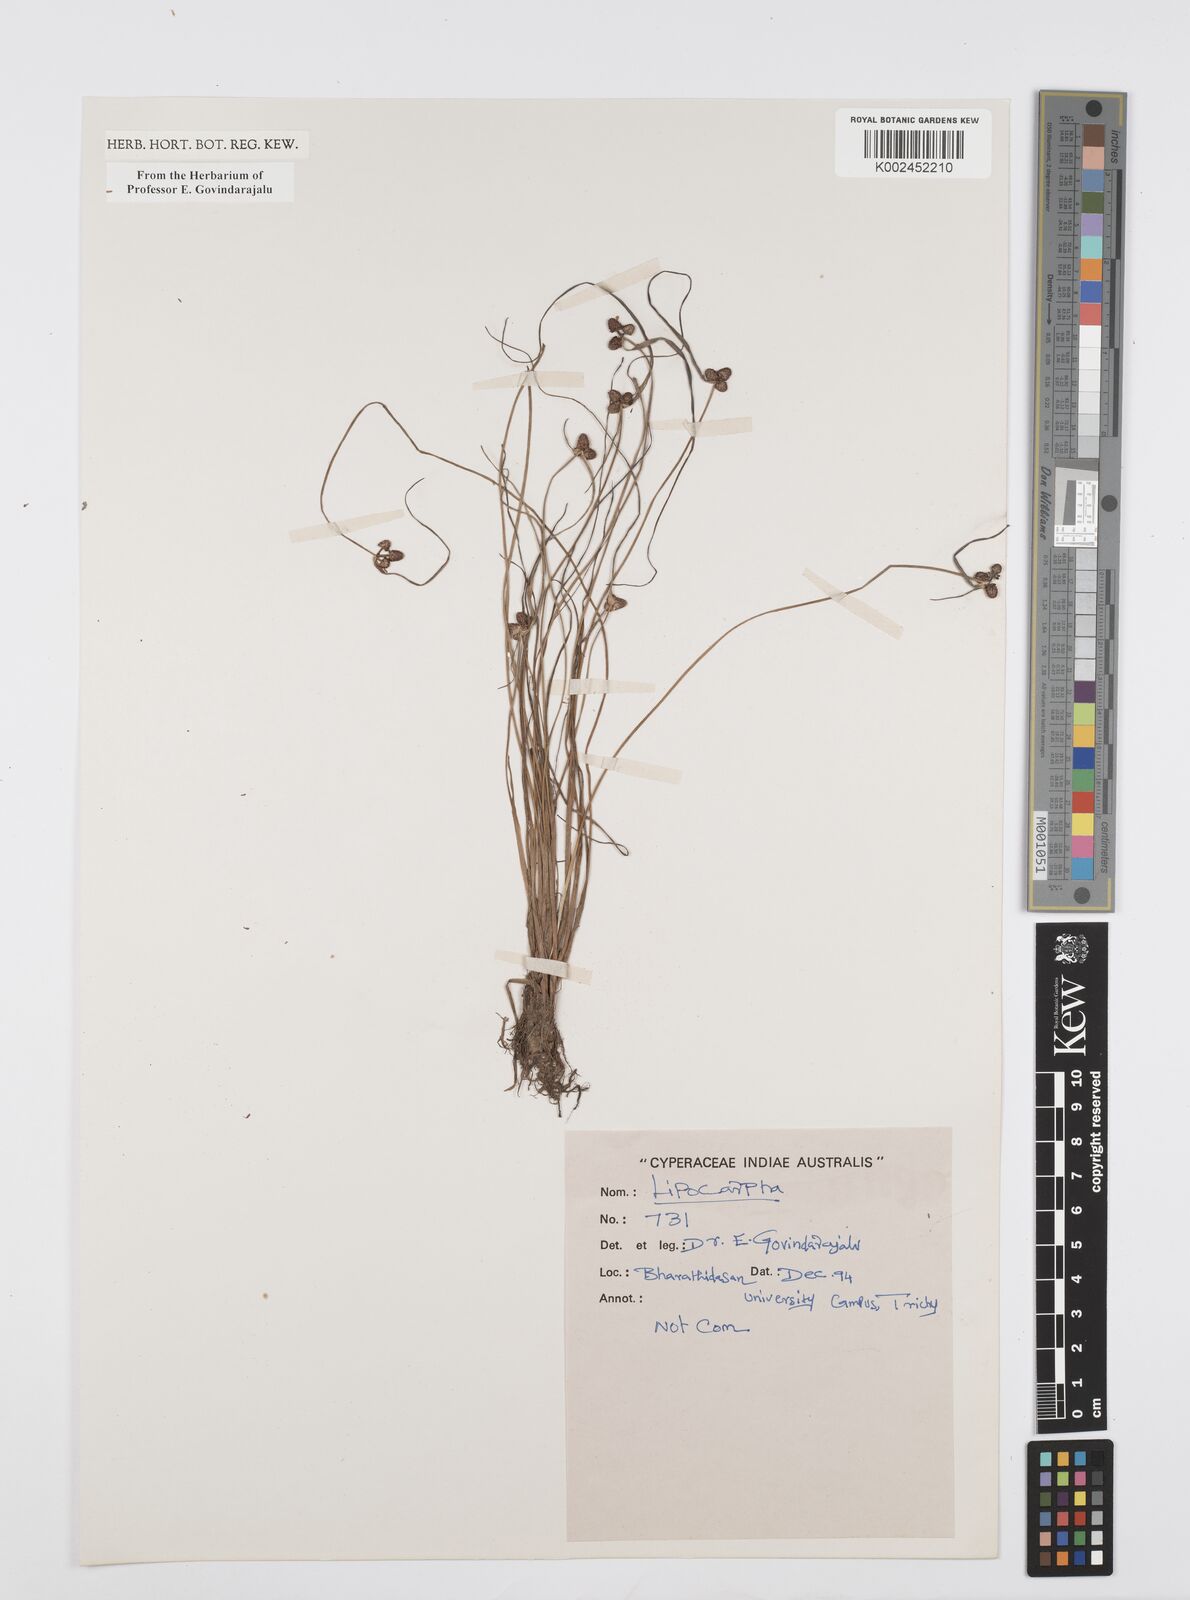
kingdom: Plantae
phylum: Tracheophyta
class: Liliopsida
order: Poales
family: Cyperaceae
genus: Cyperus
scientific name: Cyperus
